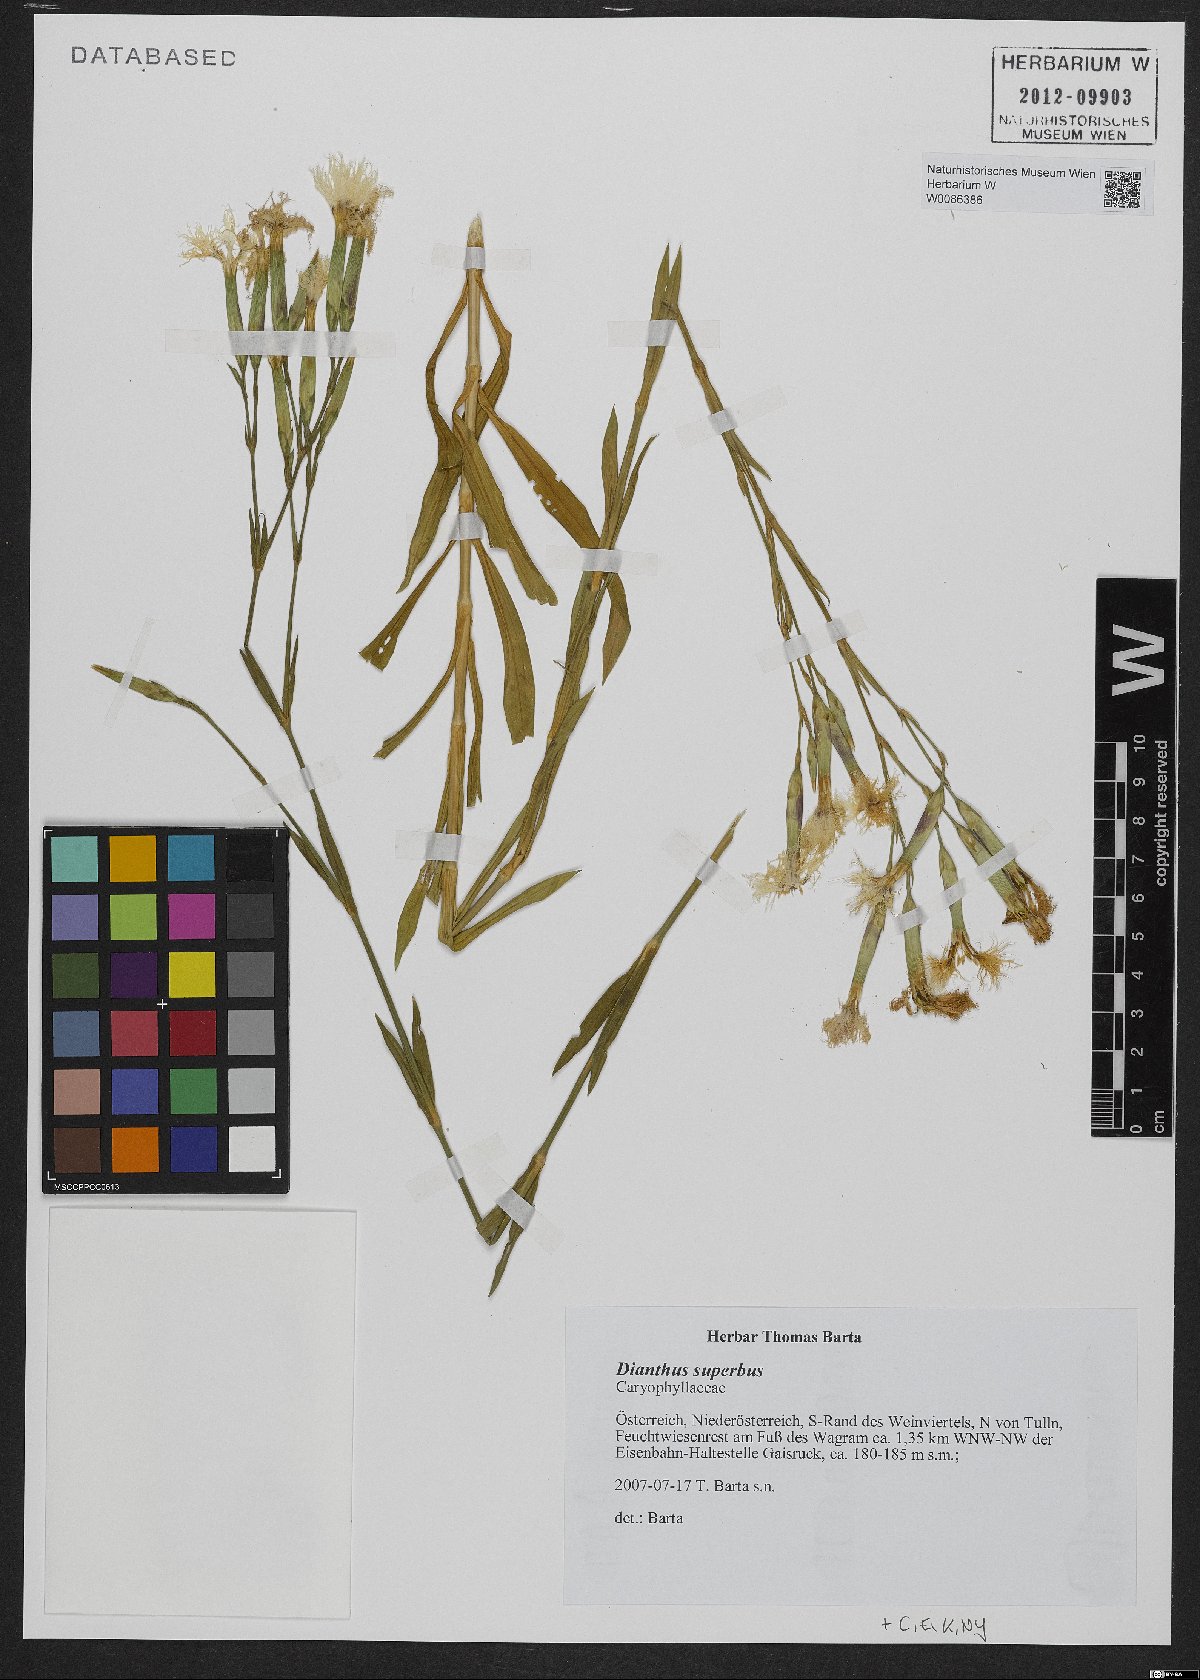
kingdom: Plantae
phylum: Tracheophyta
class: Magnoliopsida
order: Caryophyllales
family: Caryophyllaceae
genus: Dianthus
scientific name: Dianthus superbus
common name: Fringed pink
